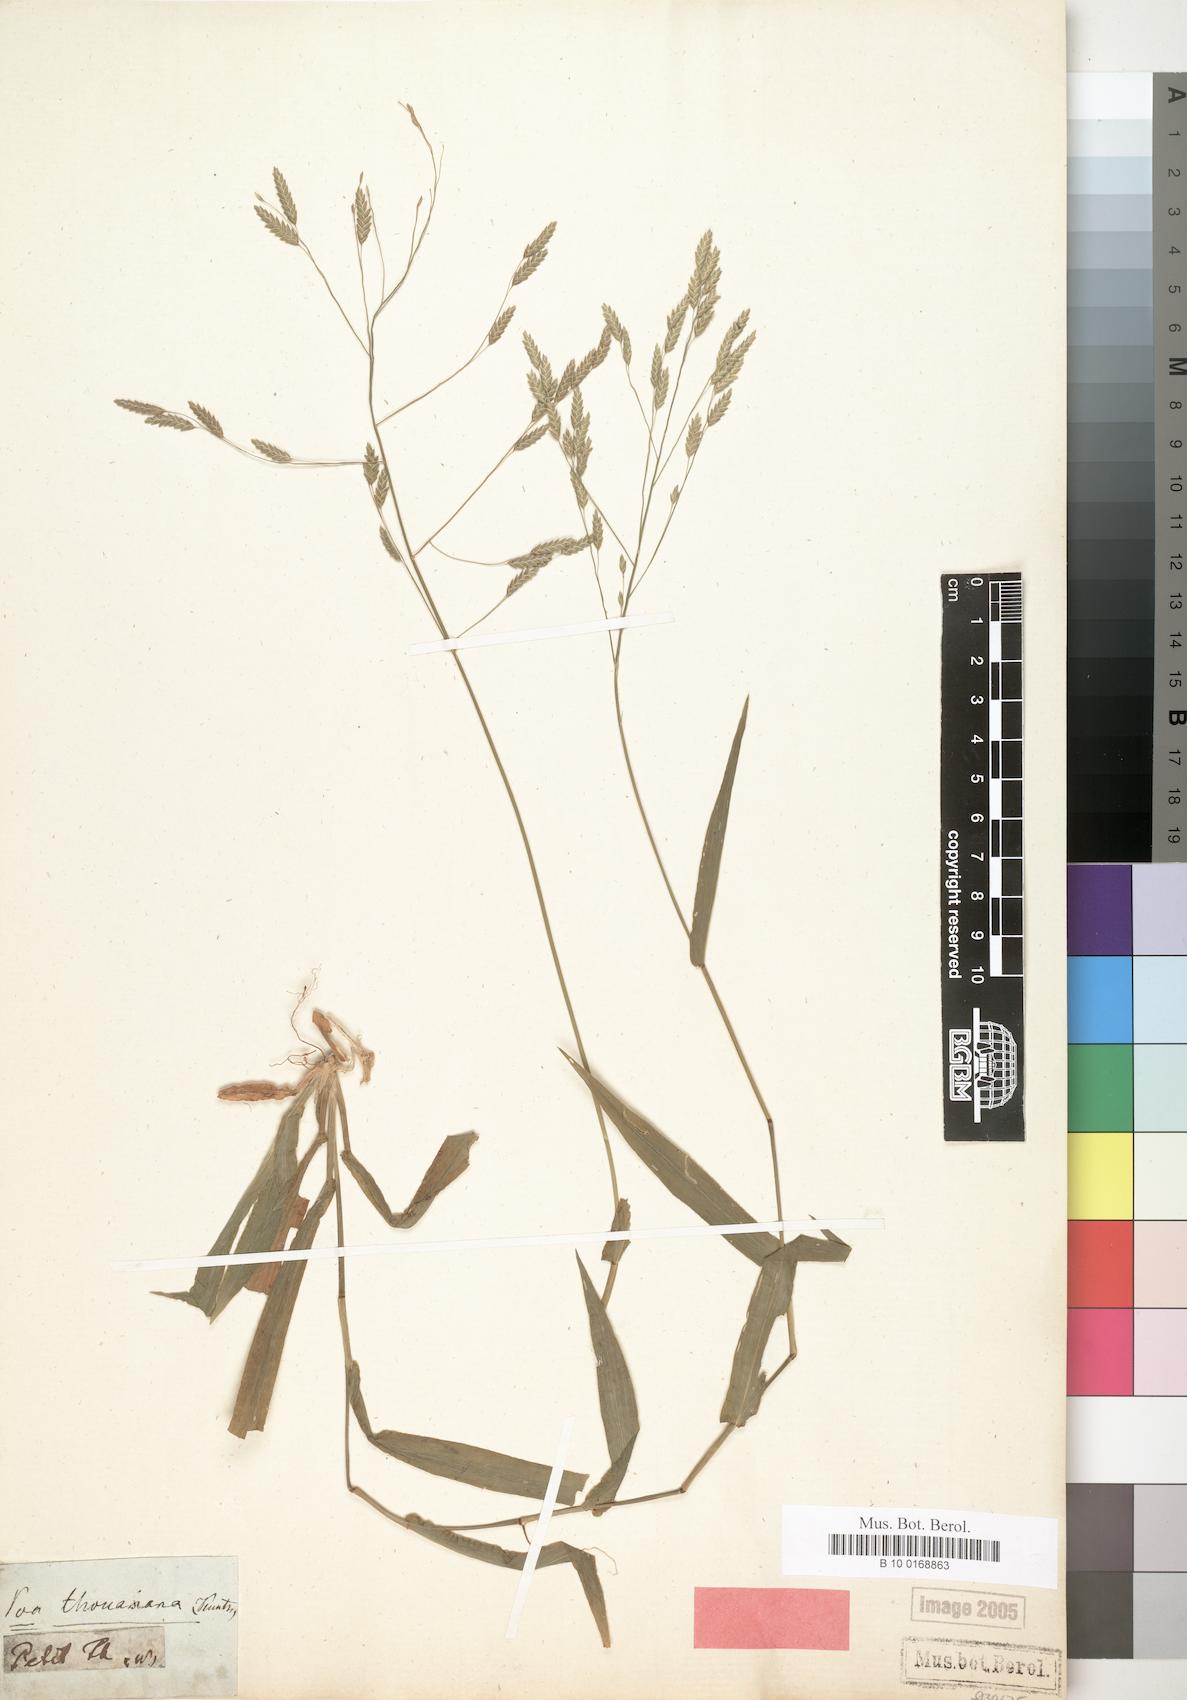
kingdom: Plantae
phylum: Tracheophyta
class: Liliopsida
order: Poales
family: Poaceae
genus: Poa
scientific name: Poa thouarsiana
